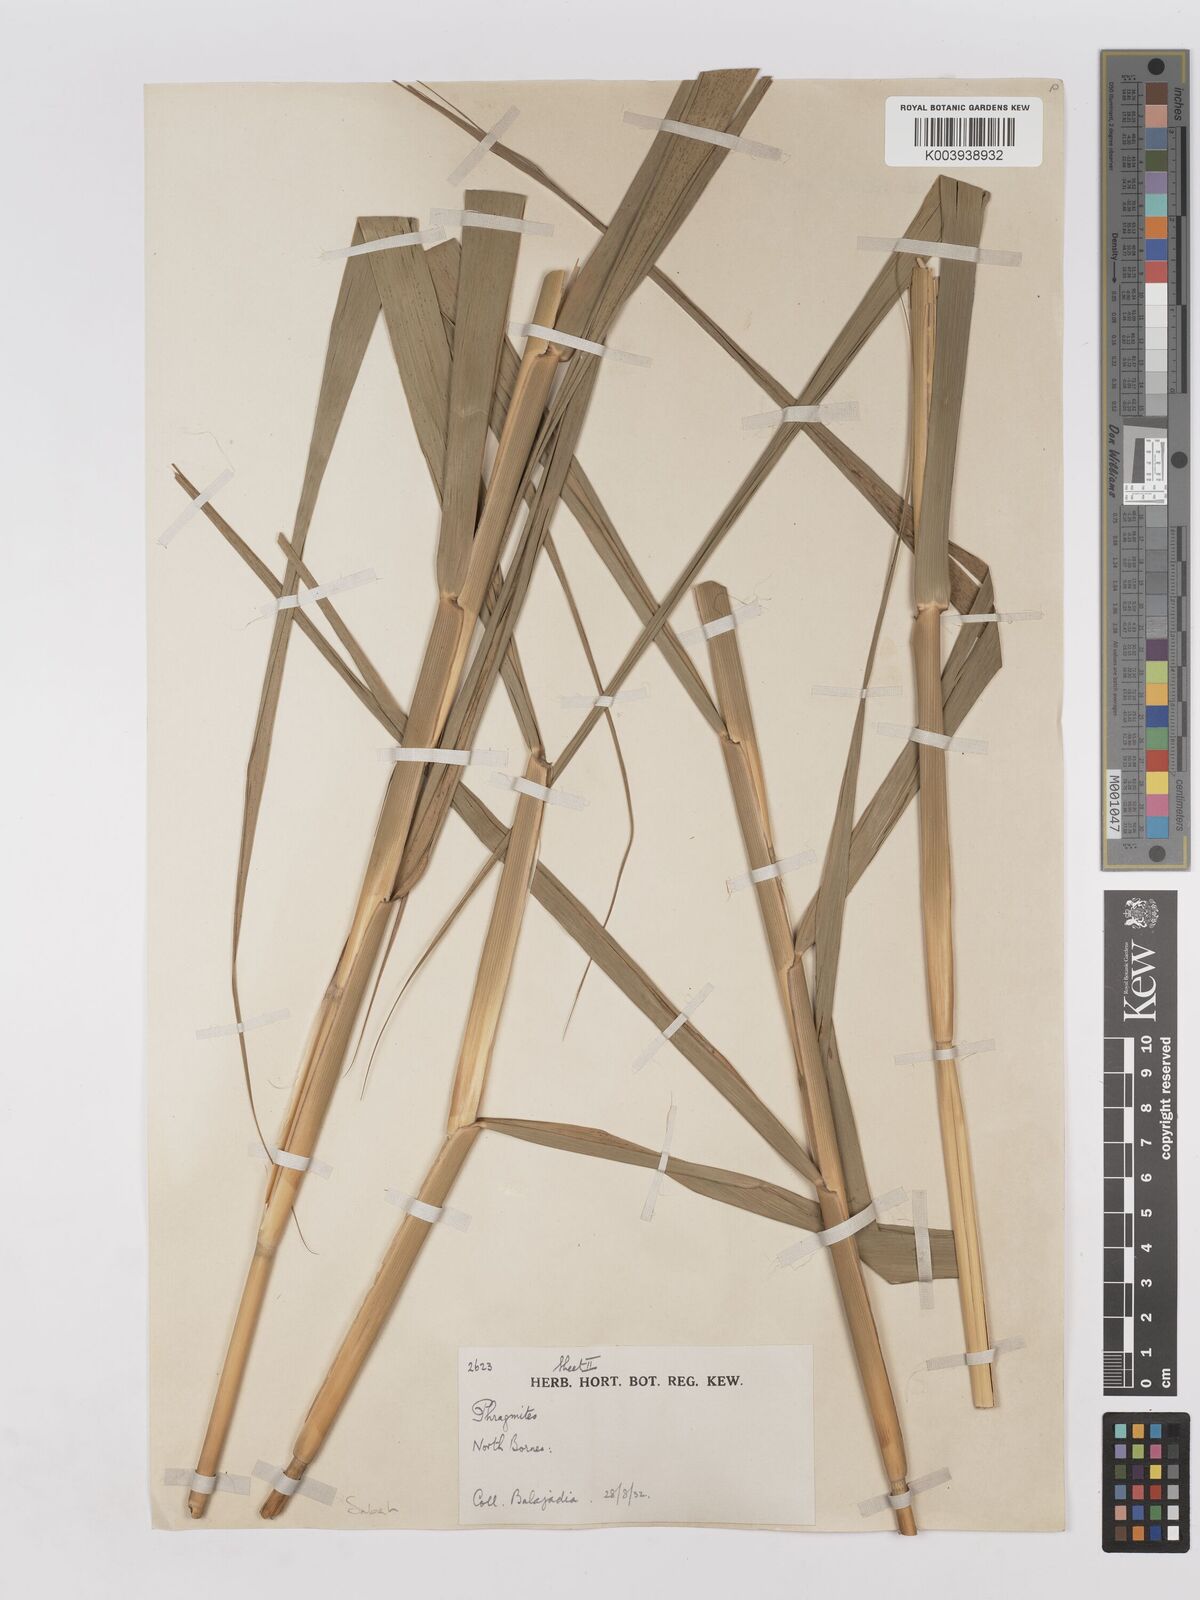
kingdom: Plantae
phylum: Tracheophyta
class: Liliopsida
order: Poales
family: Poaceae
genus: Phragmites
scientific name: Phragmites karka
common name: Tropical reed
